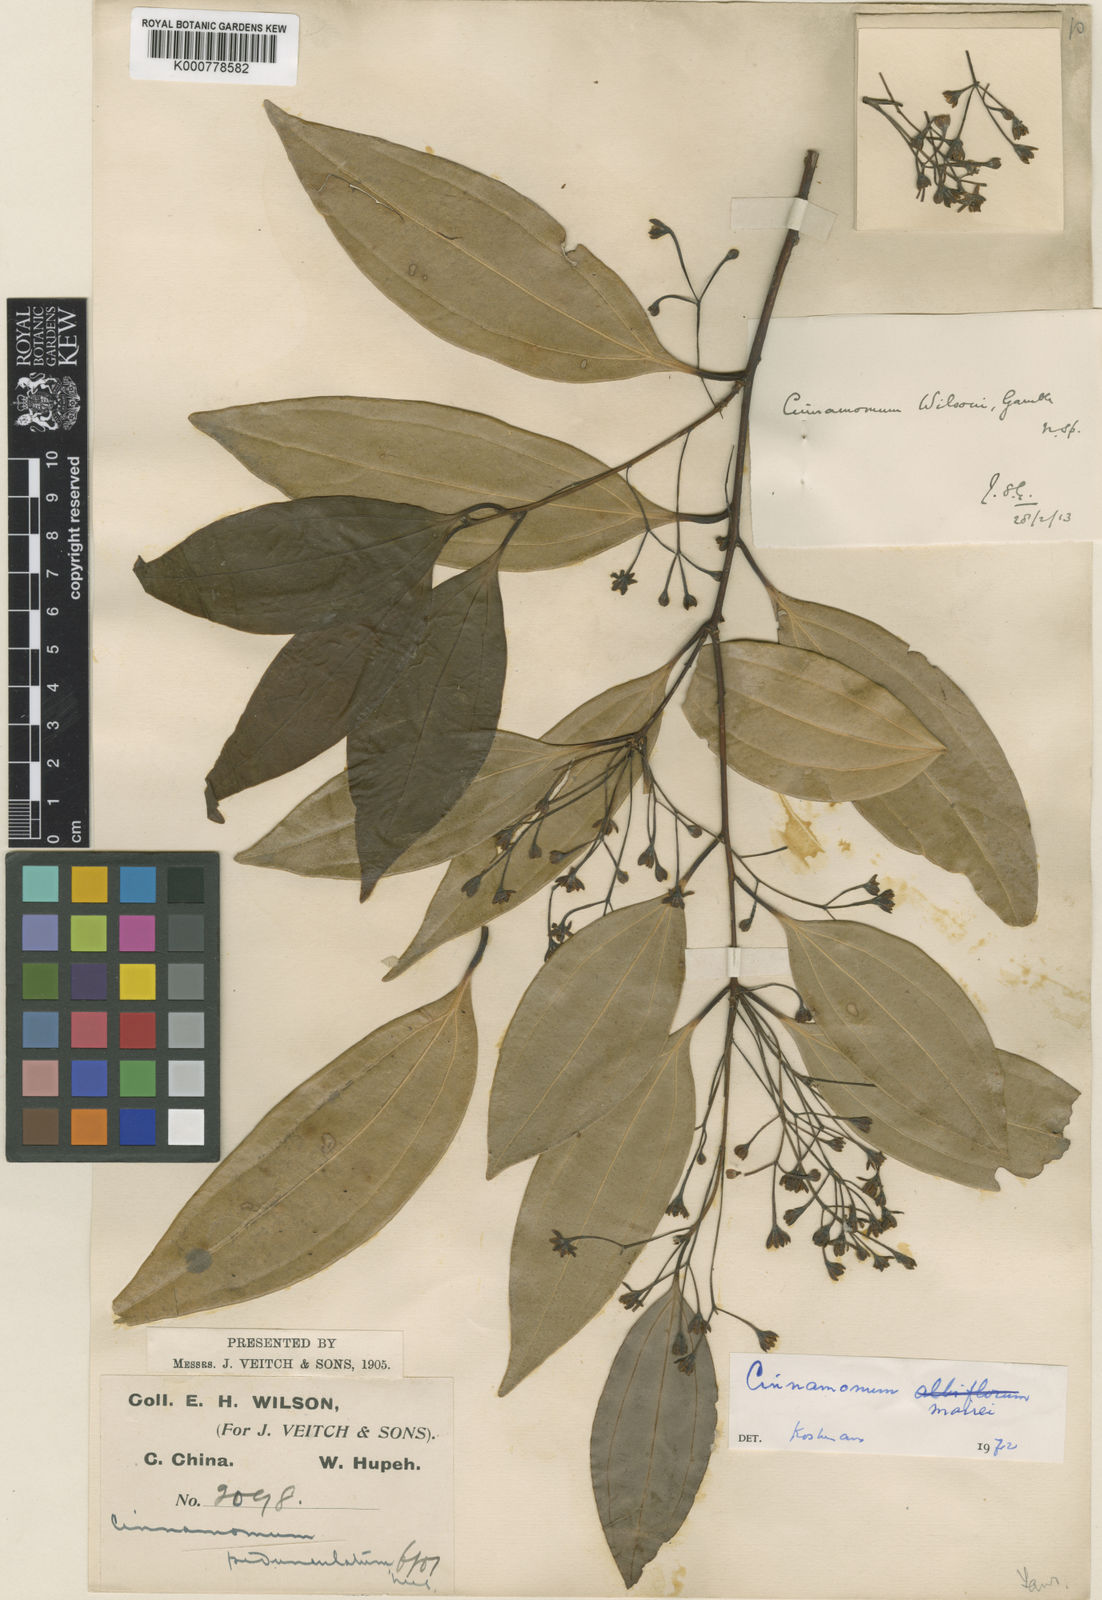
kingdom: Plantae
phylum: Tracheophyta
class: Magnoliopsida
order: Laurales
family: Lauraceae
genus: Cinnamomum
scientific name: Cinnamomum
